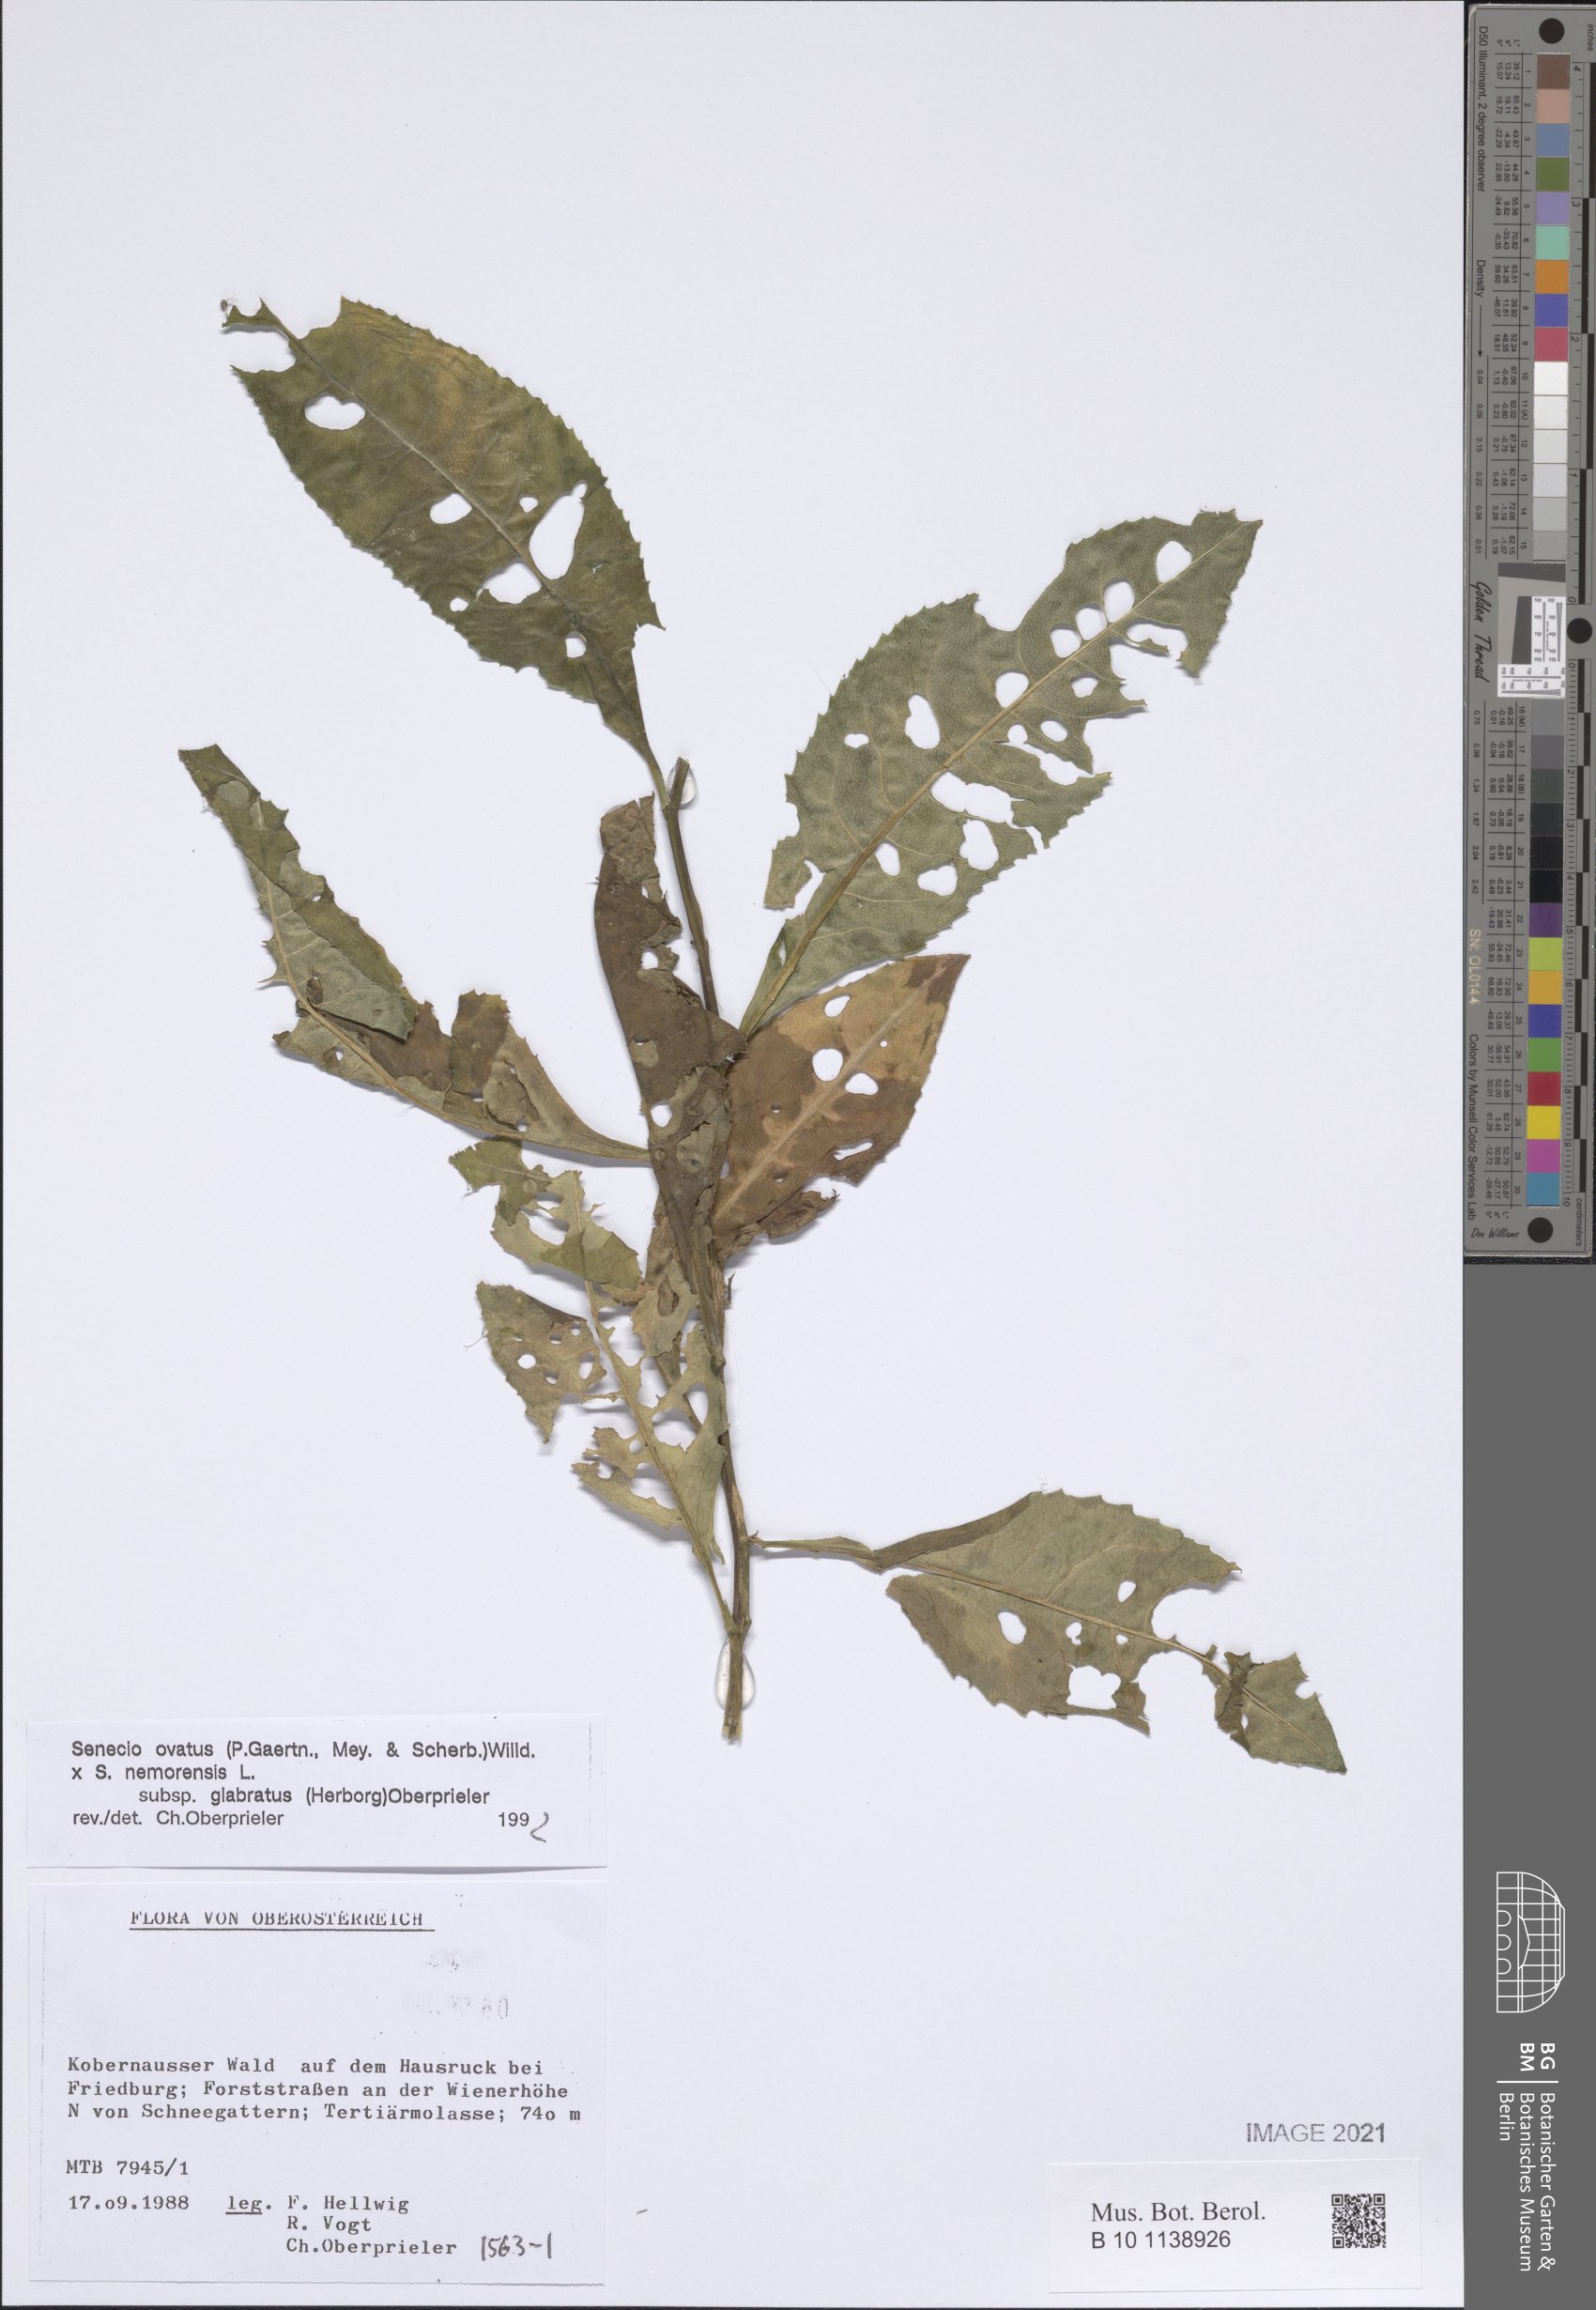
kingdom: Plantae
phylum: Tracheophyta
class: Magnoliopsida
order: Asterales
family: Asteraceae
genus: Senecio
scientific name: Senecio ovatus
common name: Wood ragwort
